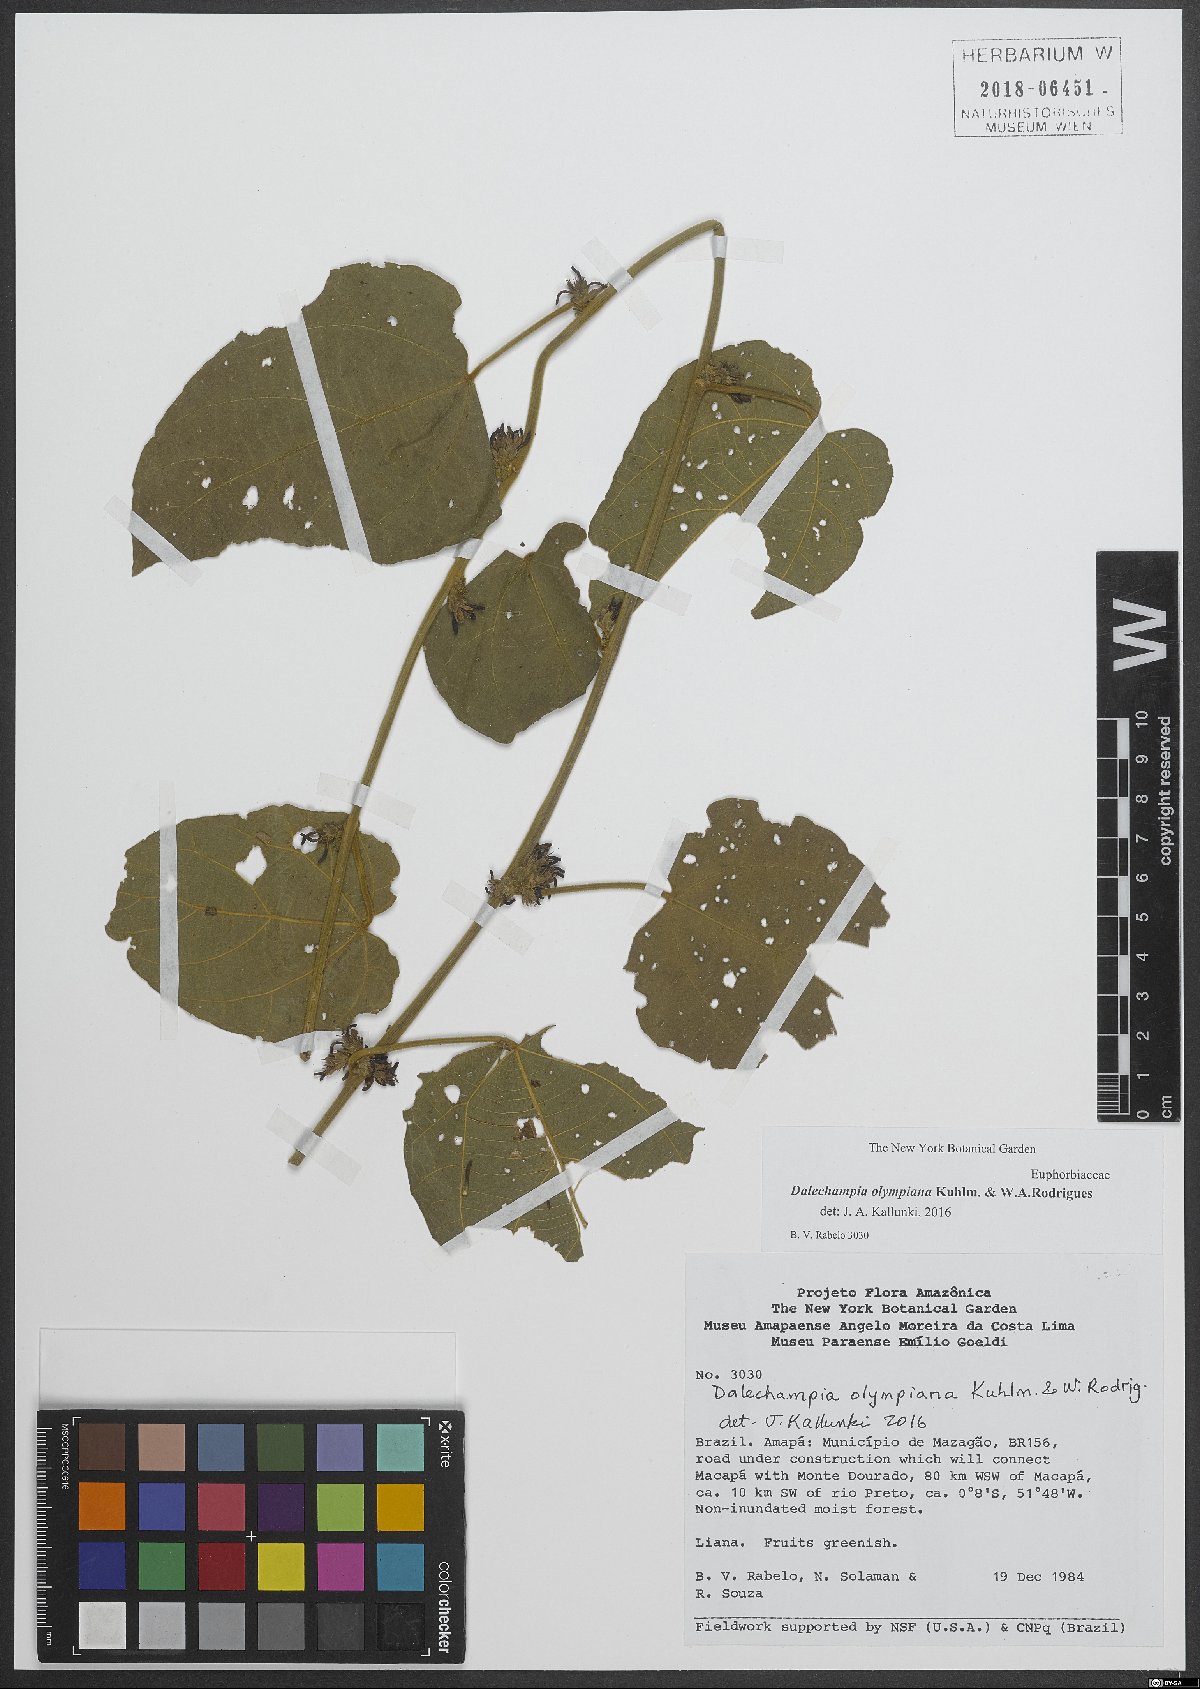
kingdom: Plantae
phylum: Tracheophyta
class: Magnoliopsida
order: Malpighiales
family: Euphorbiaceae
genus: Dalechampia
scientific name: Dalechampia olympiana
